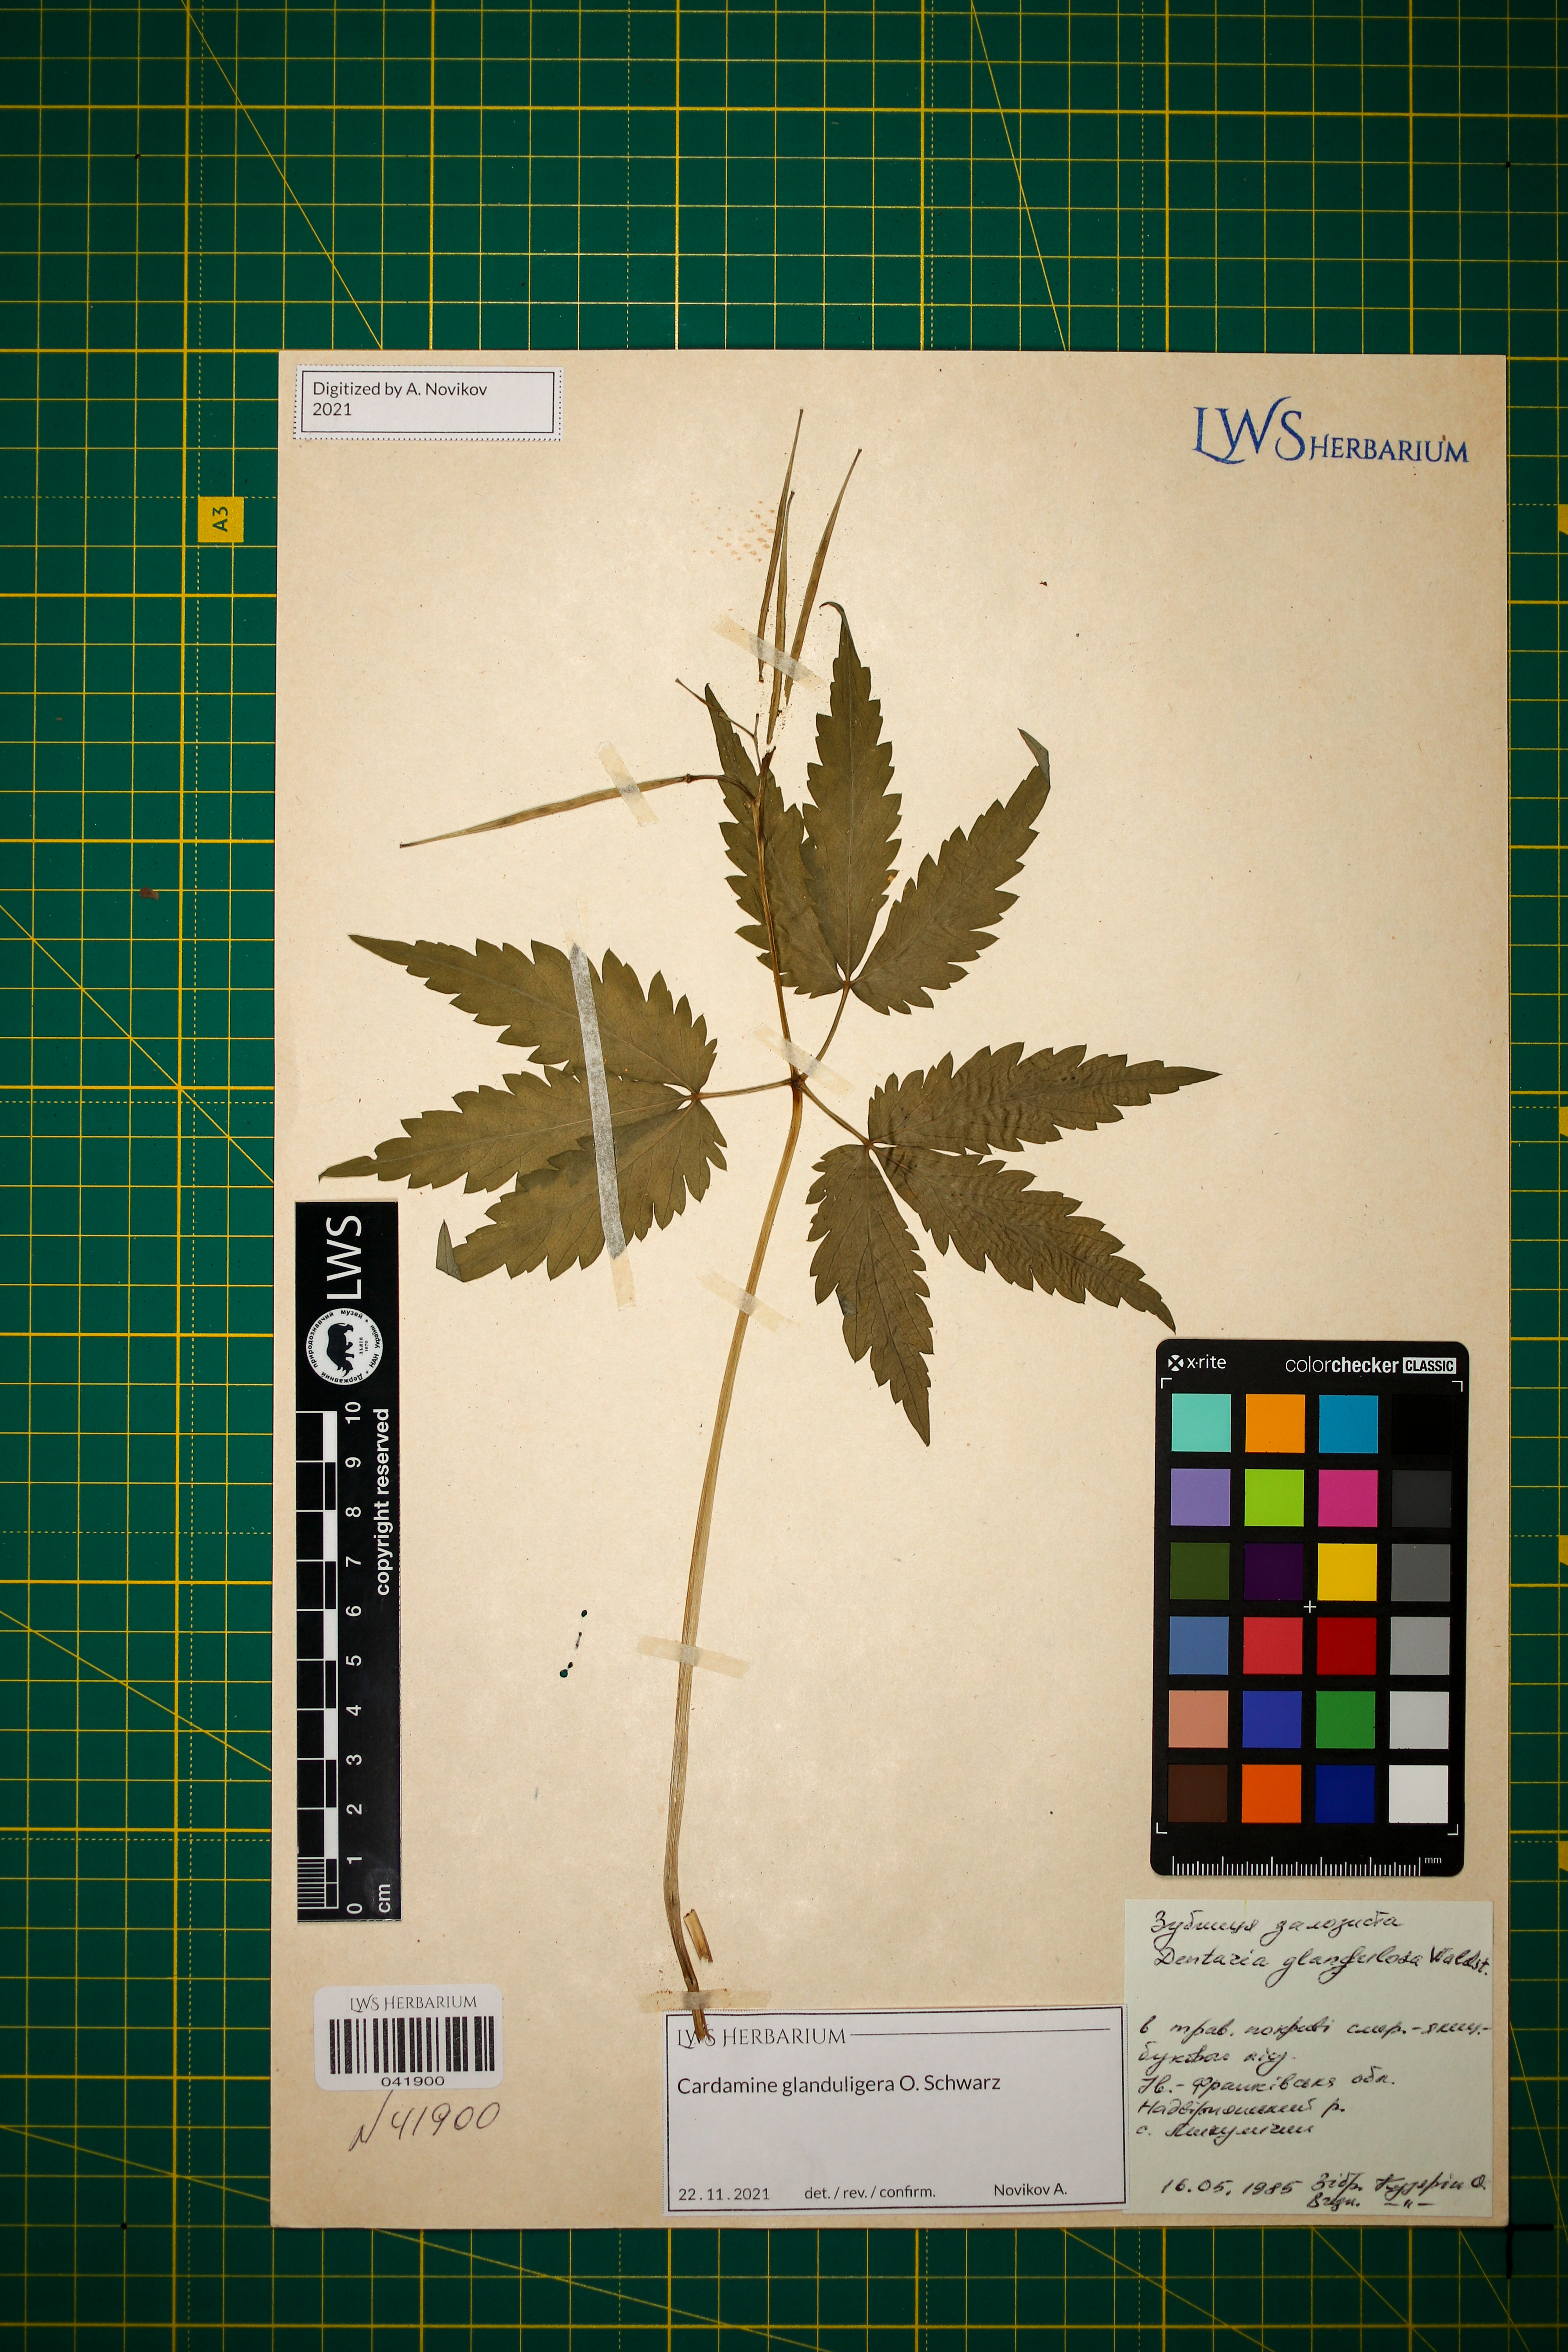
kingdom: Plantae
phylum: Tracheophyta
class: Magnoliopsida
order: Brassicales
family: Brassicaceae
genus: Cardamine
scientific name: Cardamine glanduligera
